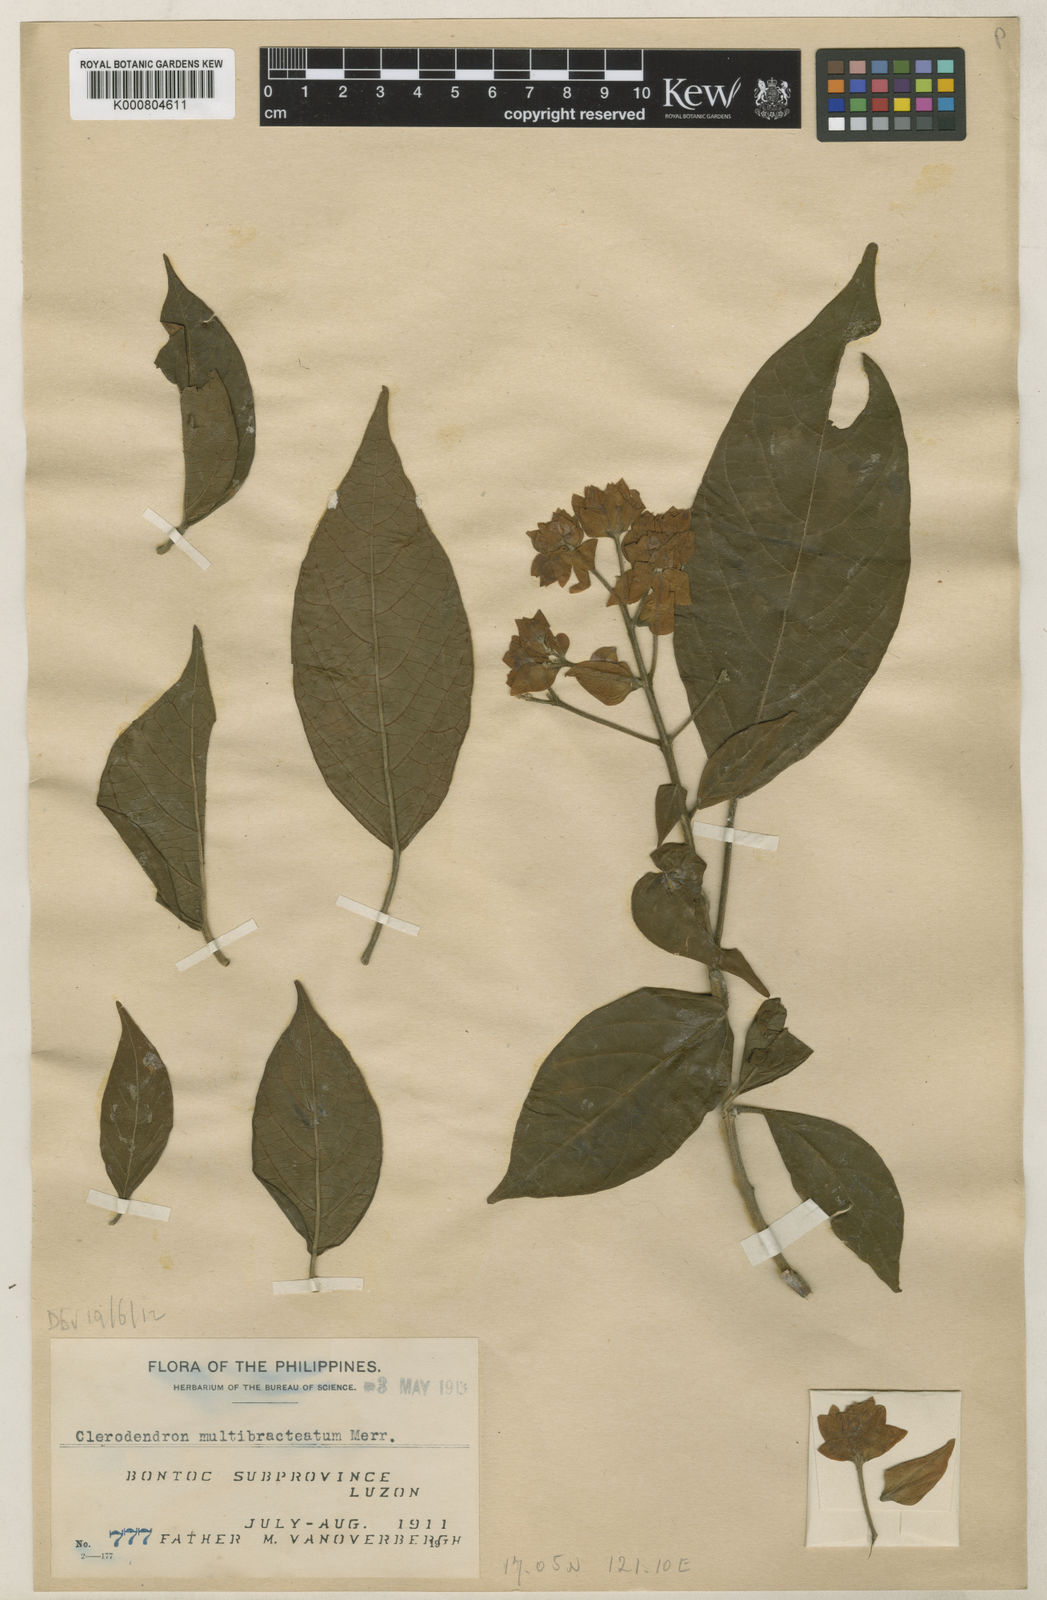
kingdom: Plantae
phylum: Tracheophyta
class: Magnoliopsida
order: Lamiales
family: Lamiaceae
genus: Clerodendrum
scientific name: Clerodendrum multibracteatum
